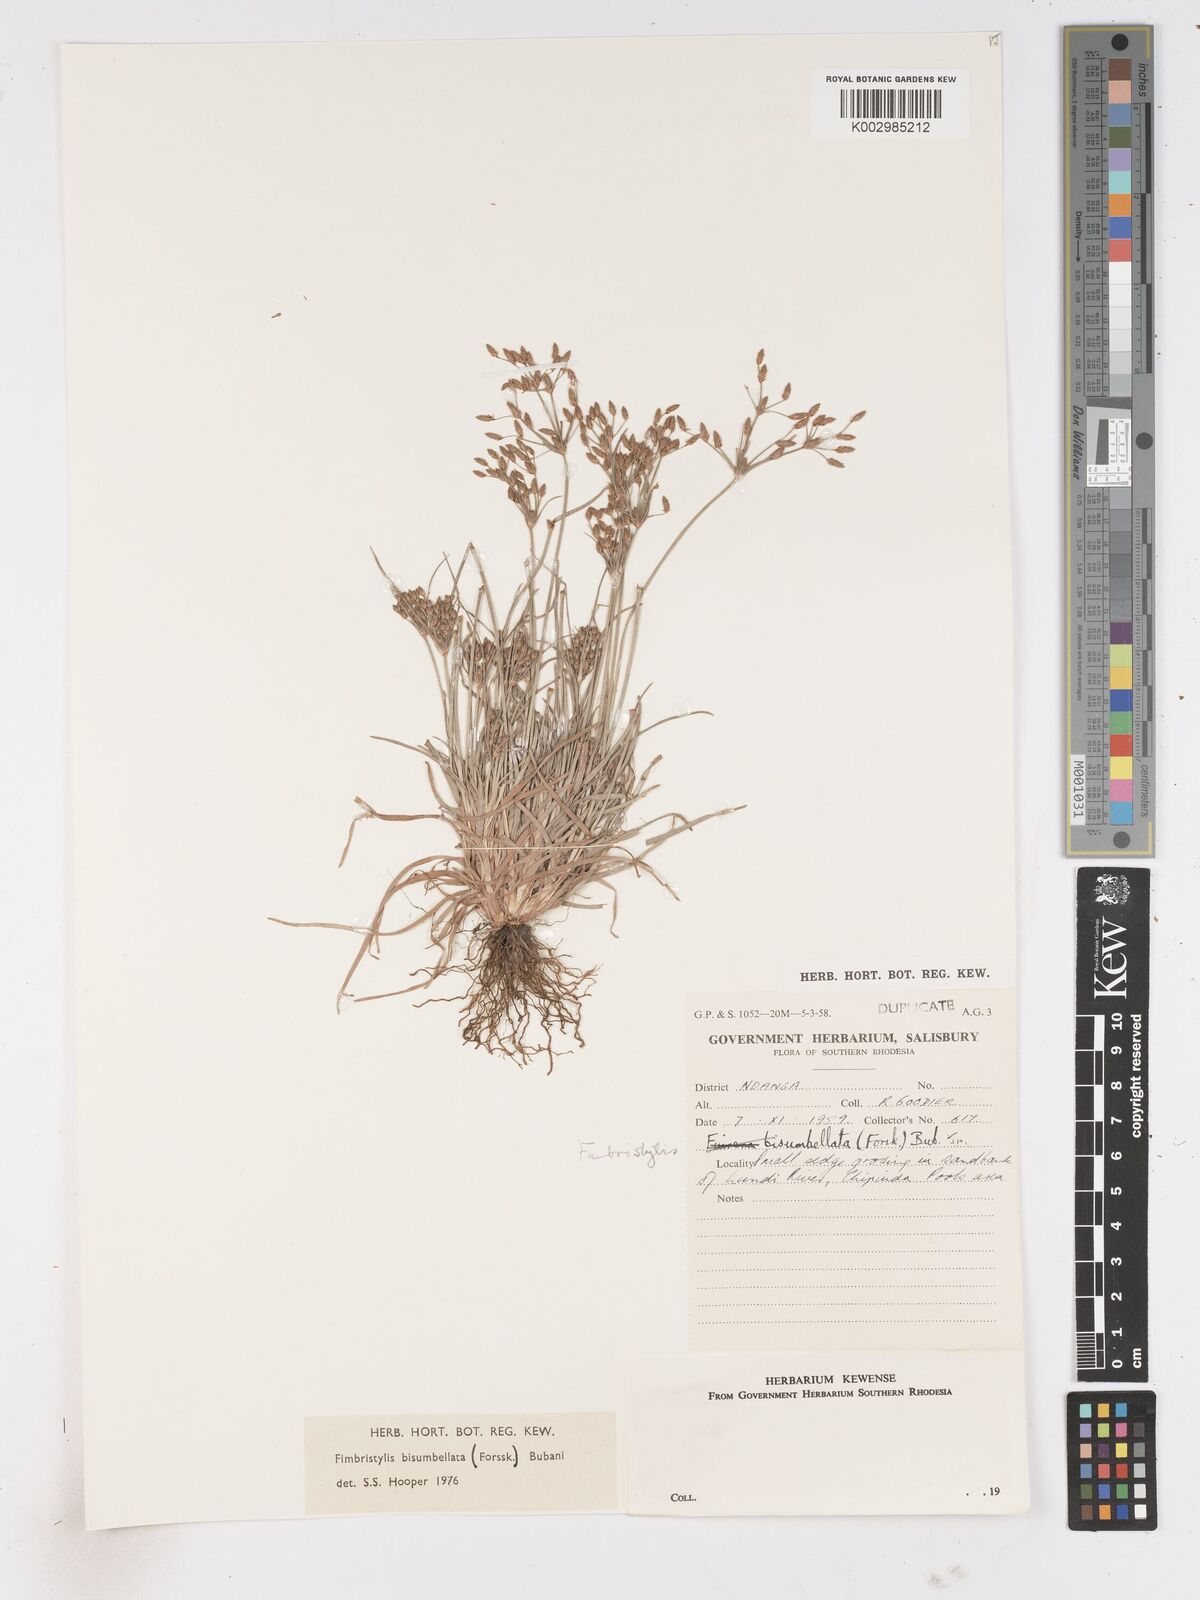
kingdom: Plantae
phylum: Tracheophyta
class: Liliopsida
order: Poales
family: Cyperaceae
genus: Fimbristylis
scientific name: Fimbristylis bisumbellata
